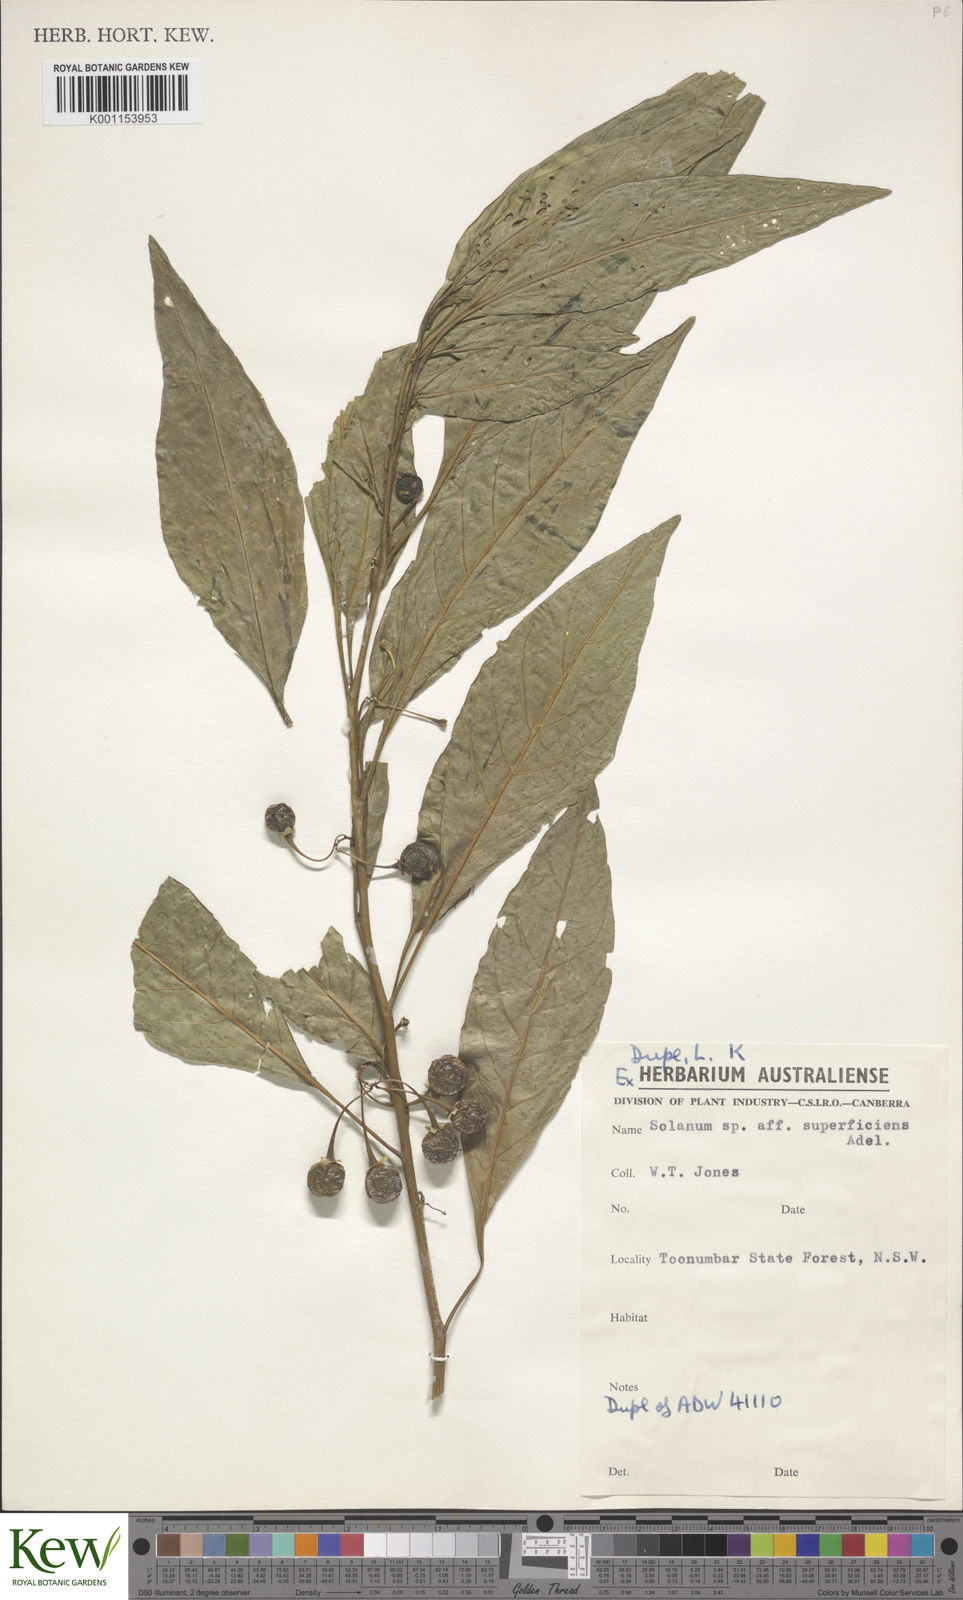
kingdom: Plantae
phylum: Tracheophyta
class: Magnoliopsida
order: Solanales
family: Solanaceae
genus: Solanum
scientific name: Solanum spirale
